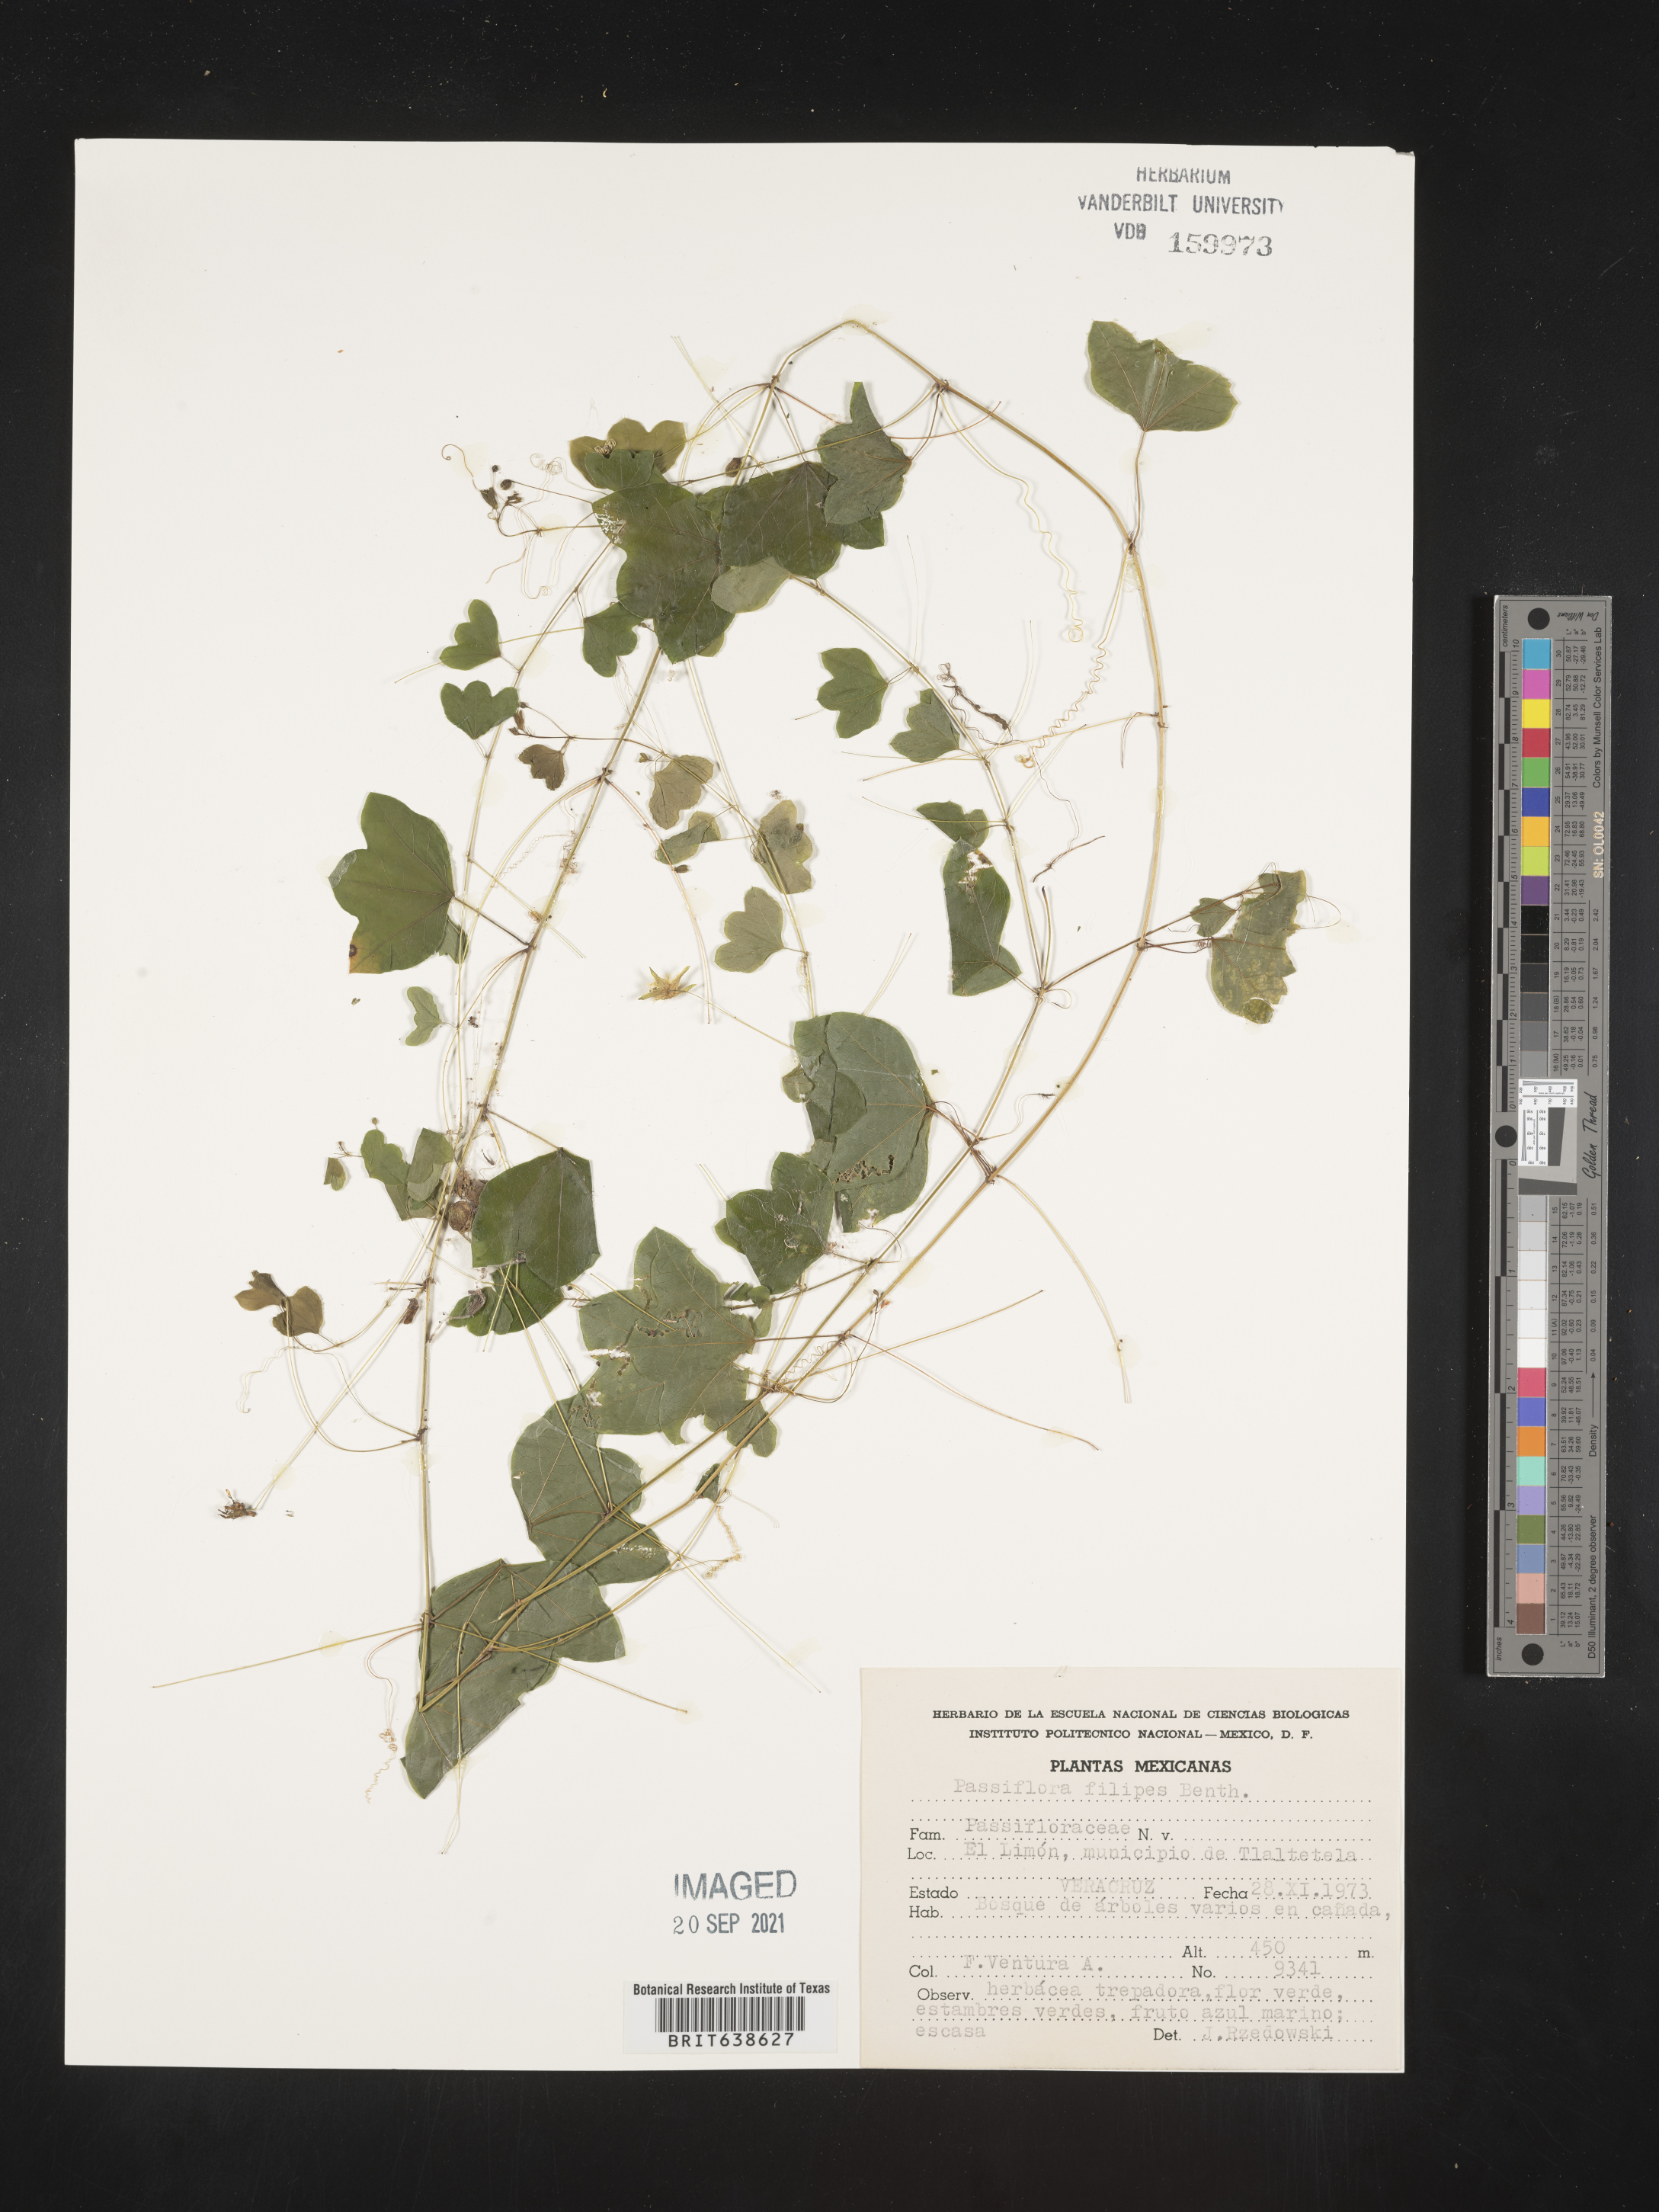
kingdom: Plantae
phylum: Tracheophyta
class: Magnoliopsida
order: Malpighiales
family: Passifloraceae
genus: Passiflora
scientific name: Passiflora
